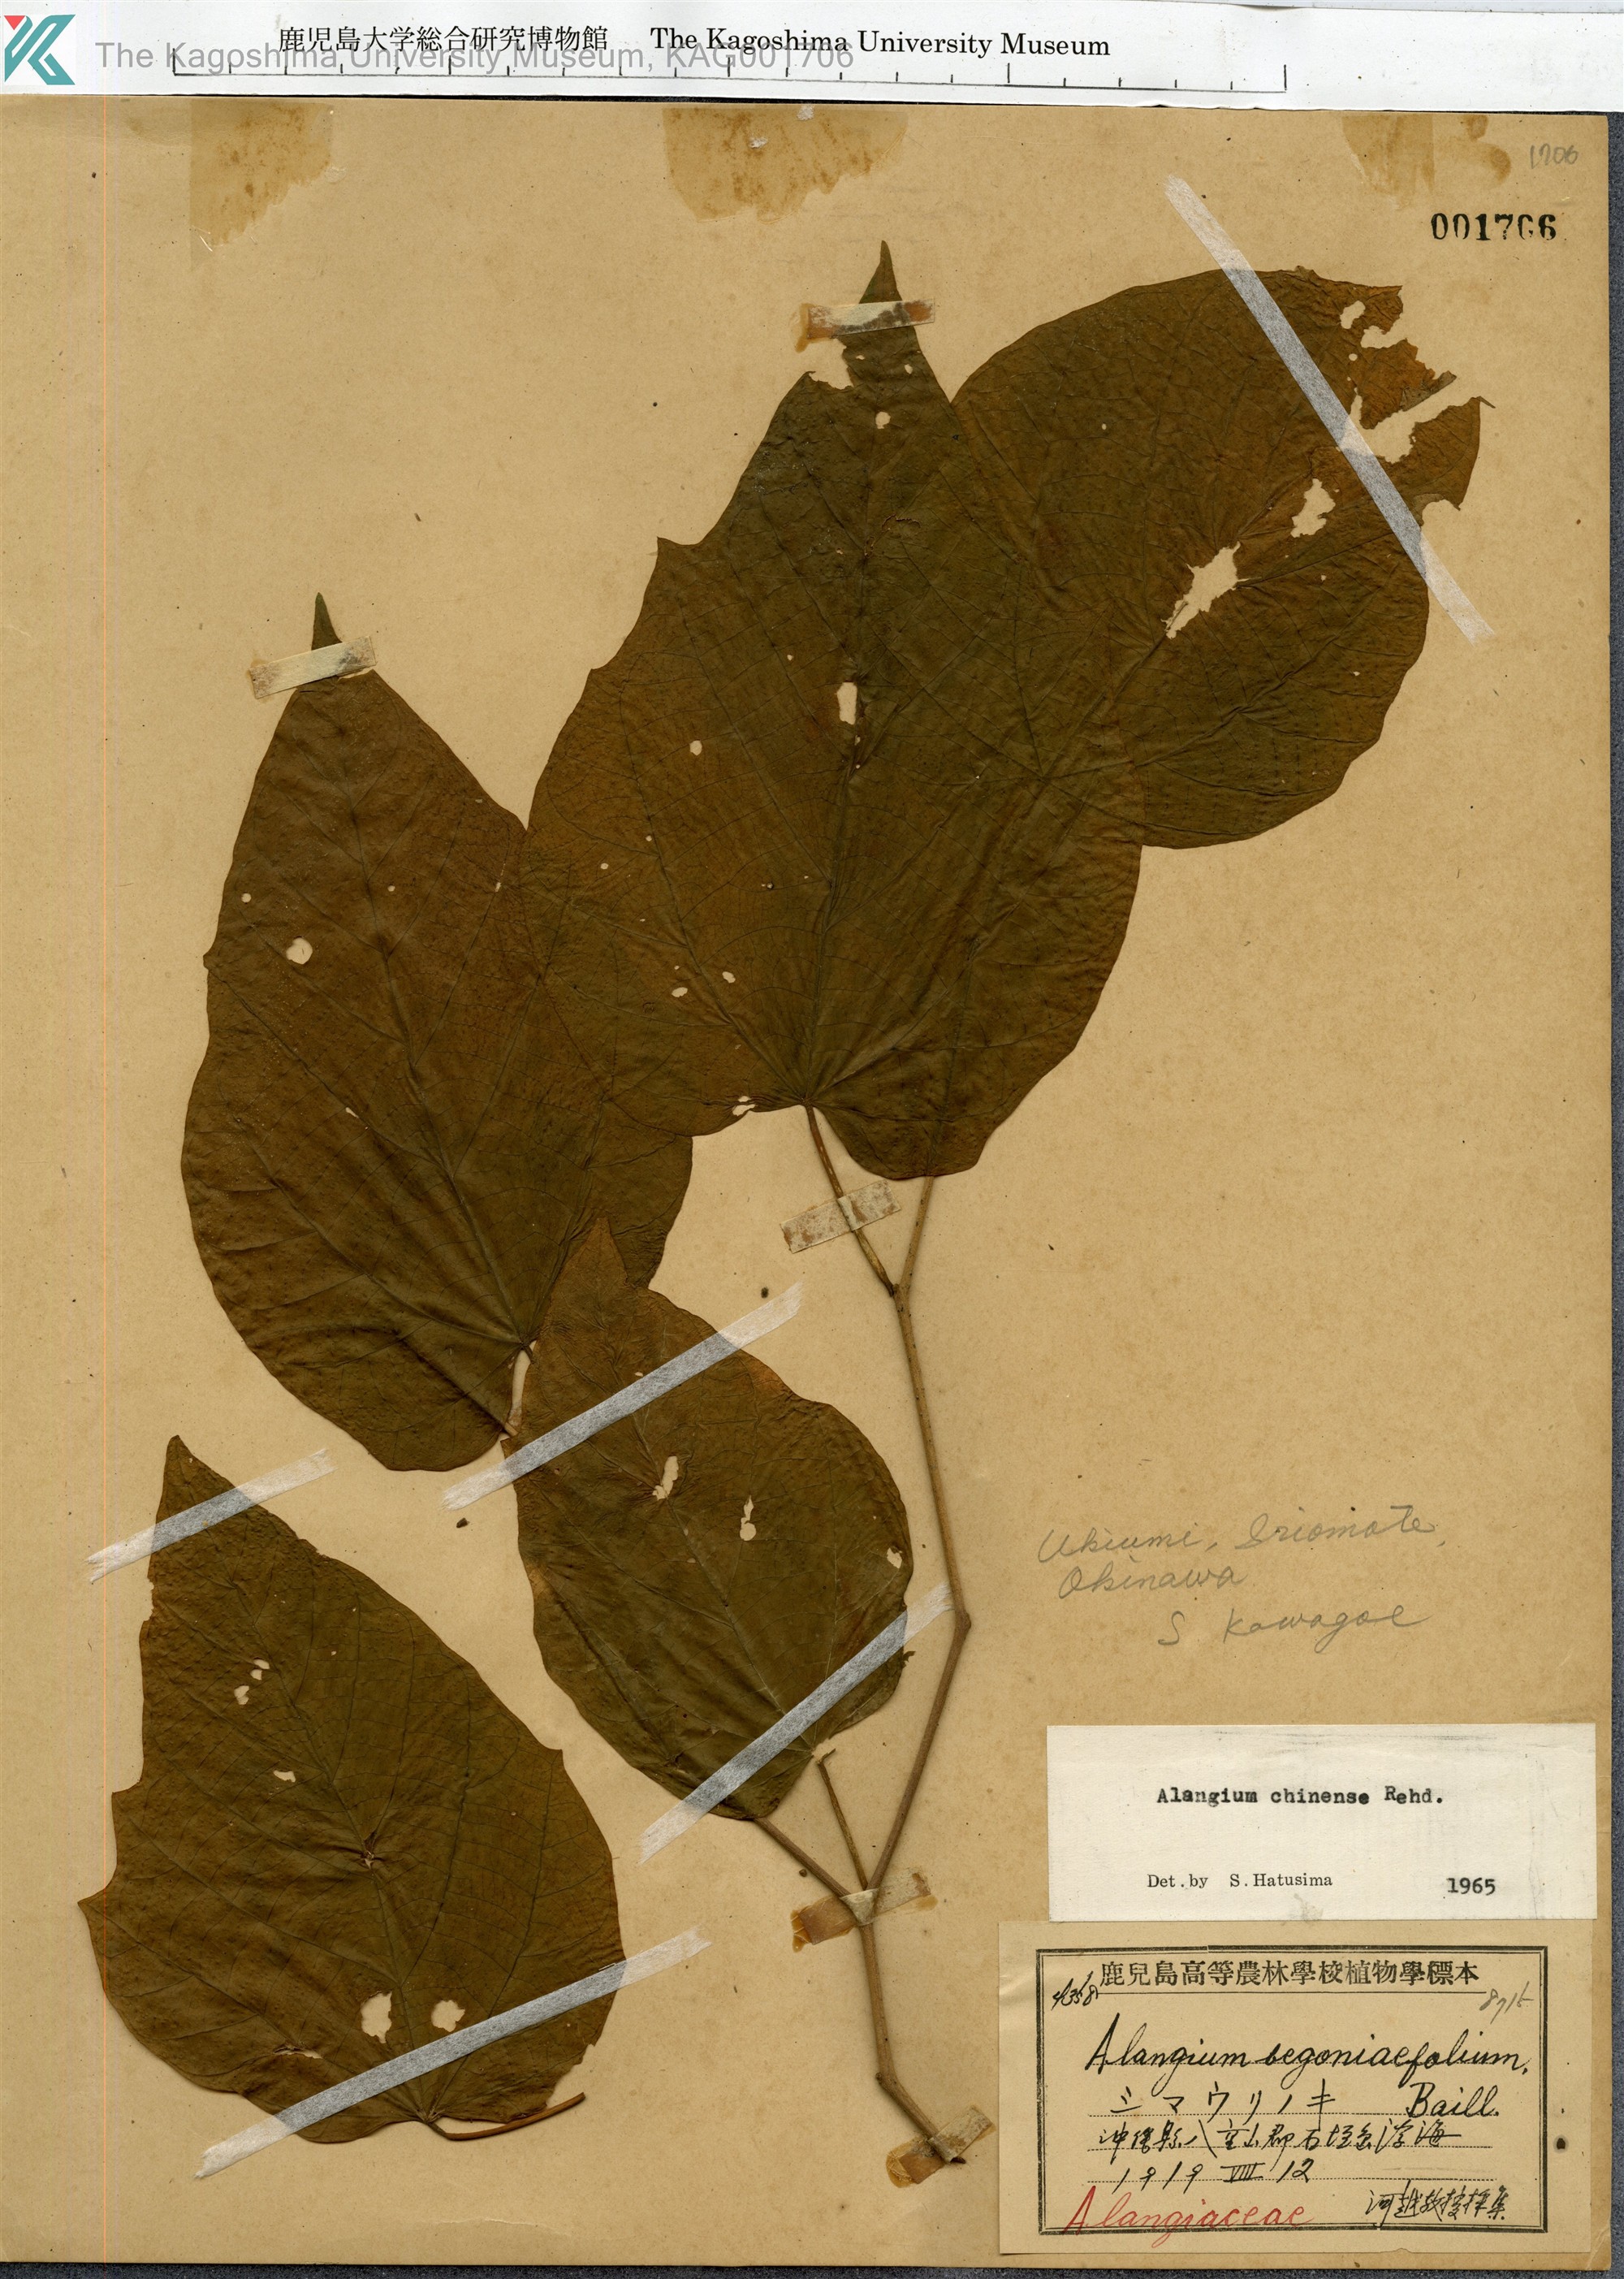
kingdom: Plantae
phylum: Tracheophyta
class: Magnoliopsida
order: Cornales
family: Cornaceae
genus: Alangium
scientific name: Alangium chinense
